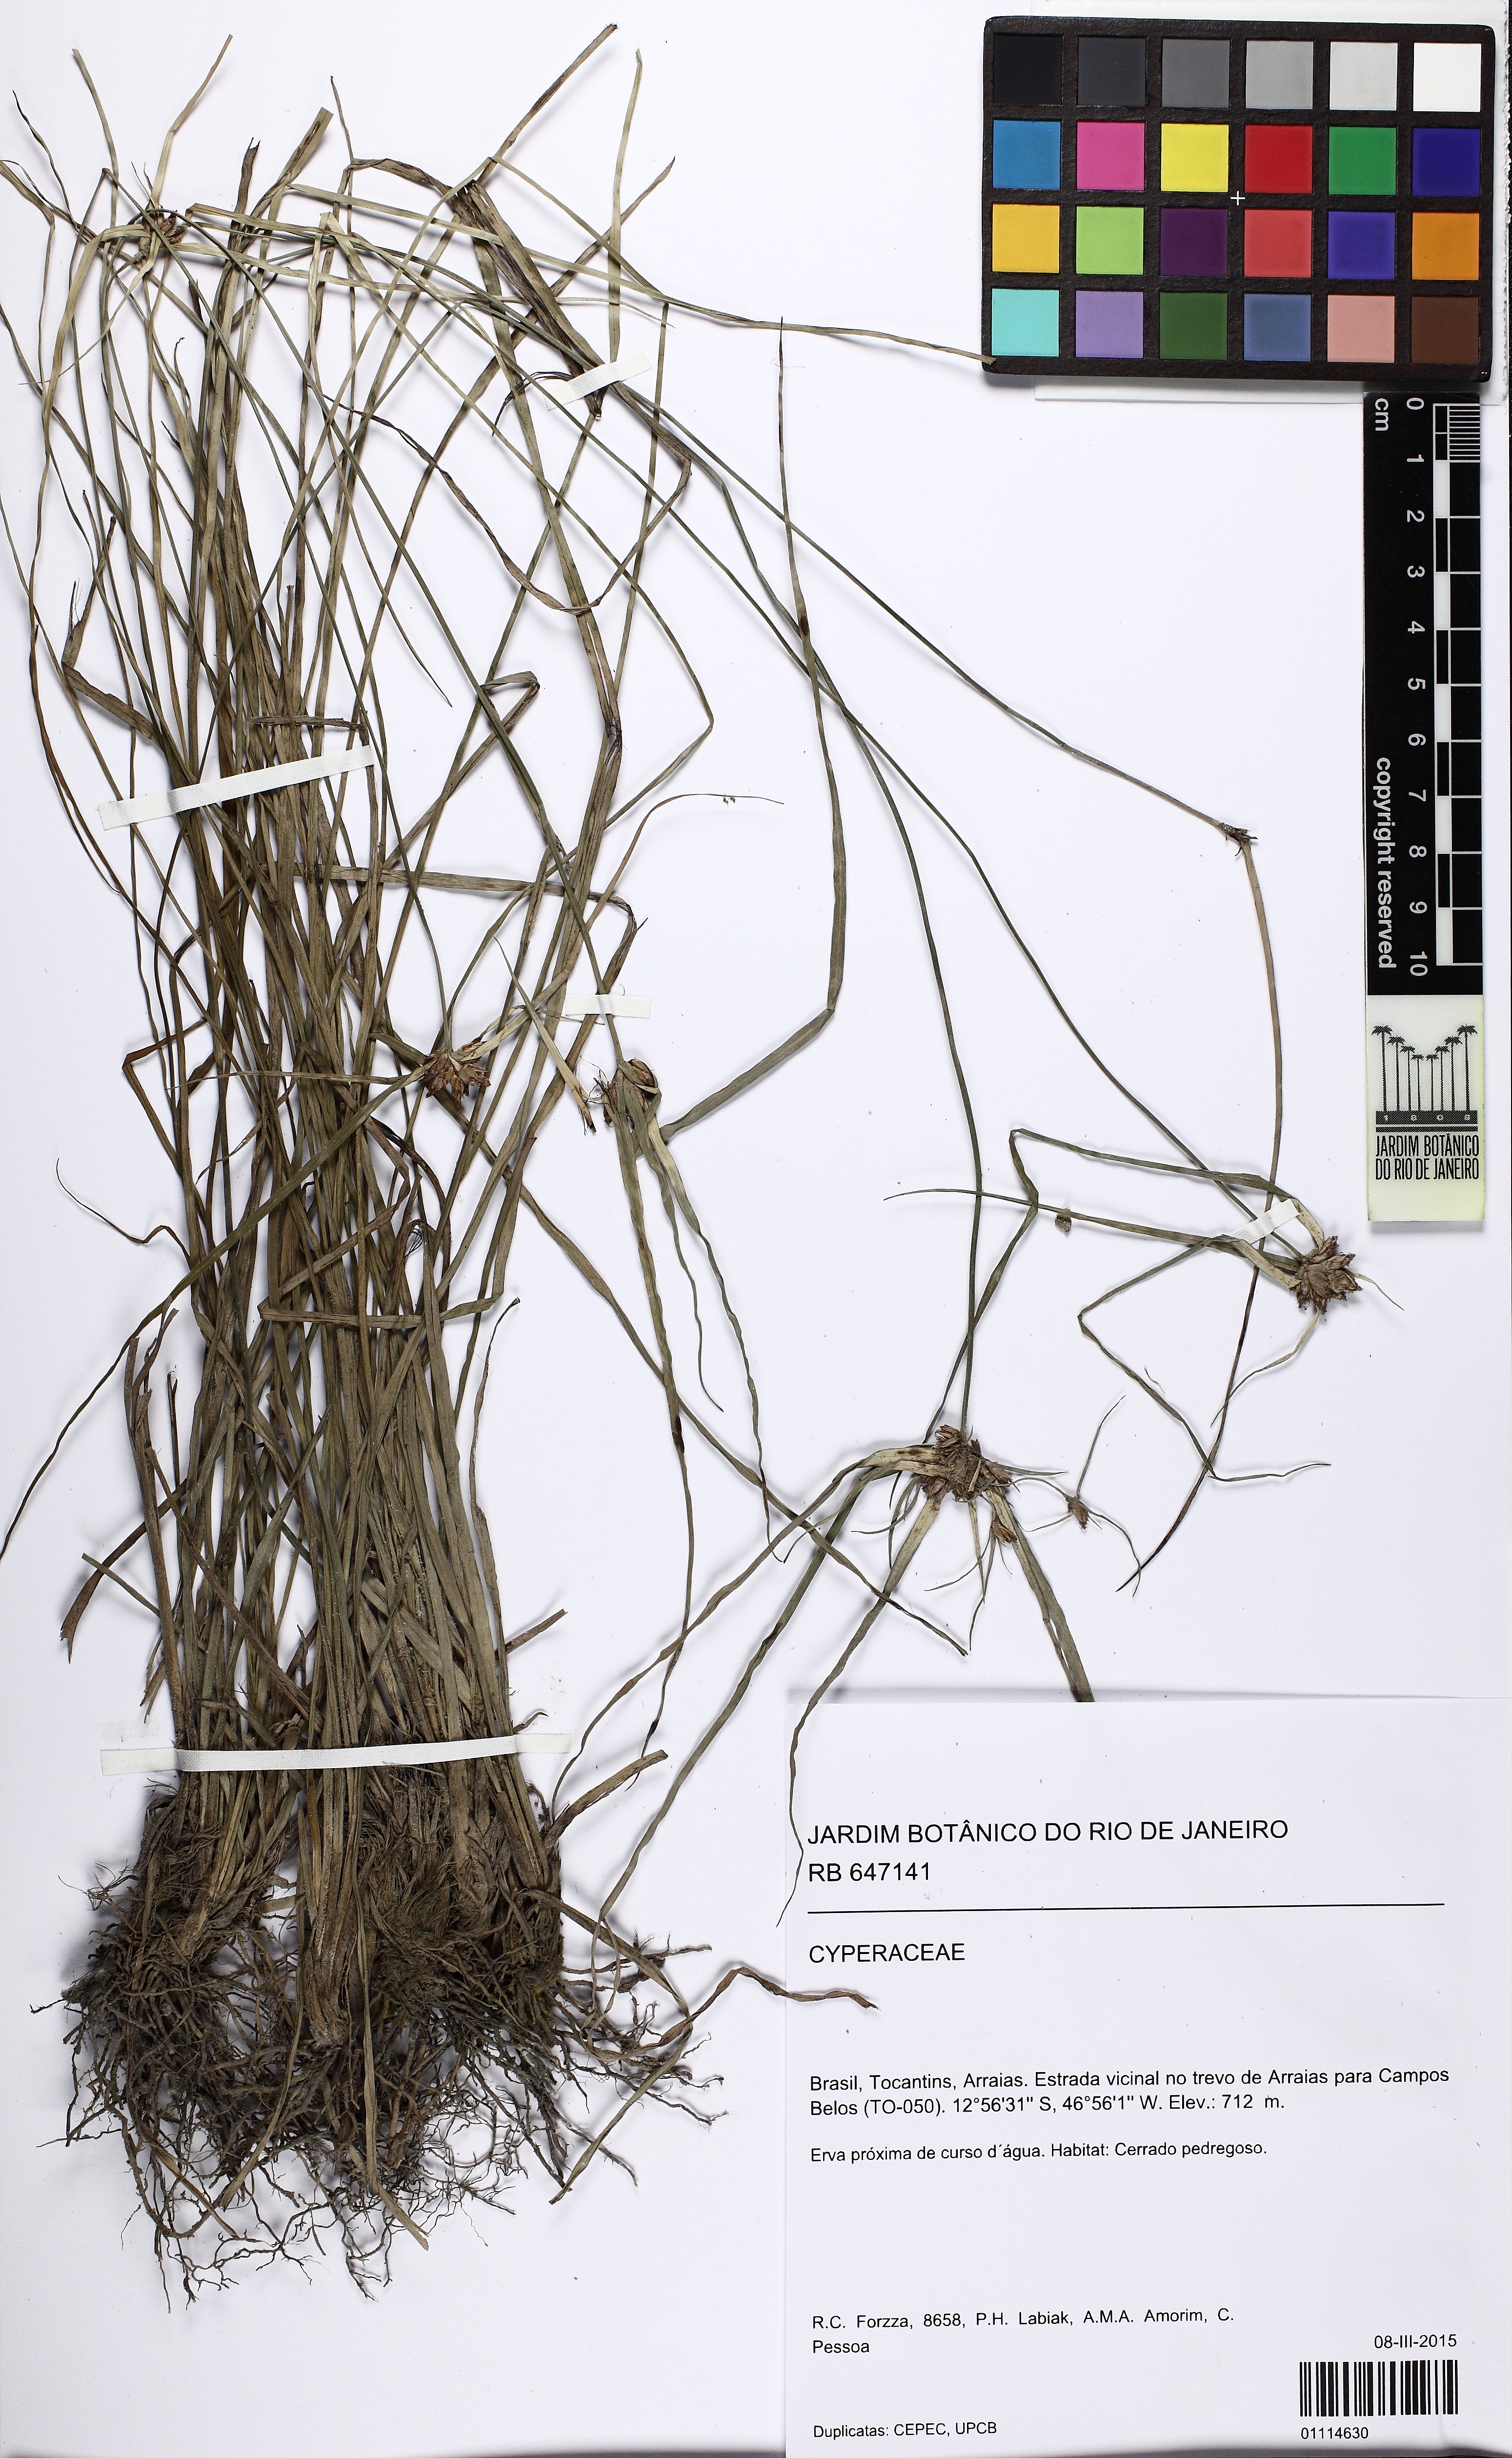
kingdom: Plantae
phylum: Tracheophyta
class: Liliopsida
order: Poales
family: Cyperaceae
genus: Rhynchospora
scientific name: Rhynchospora
